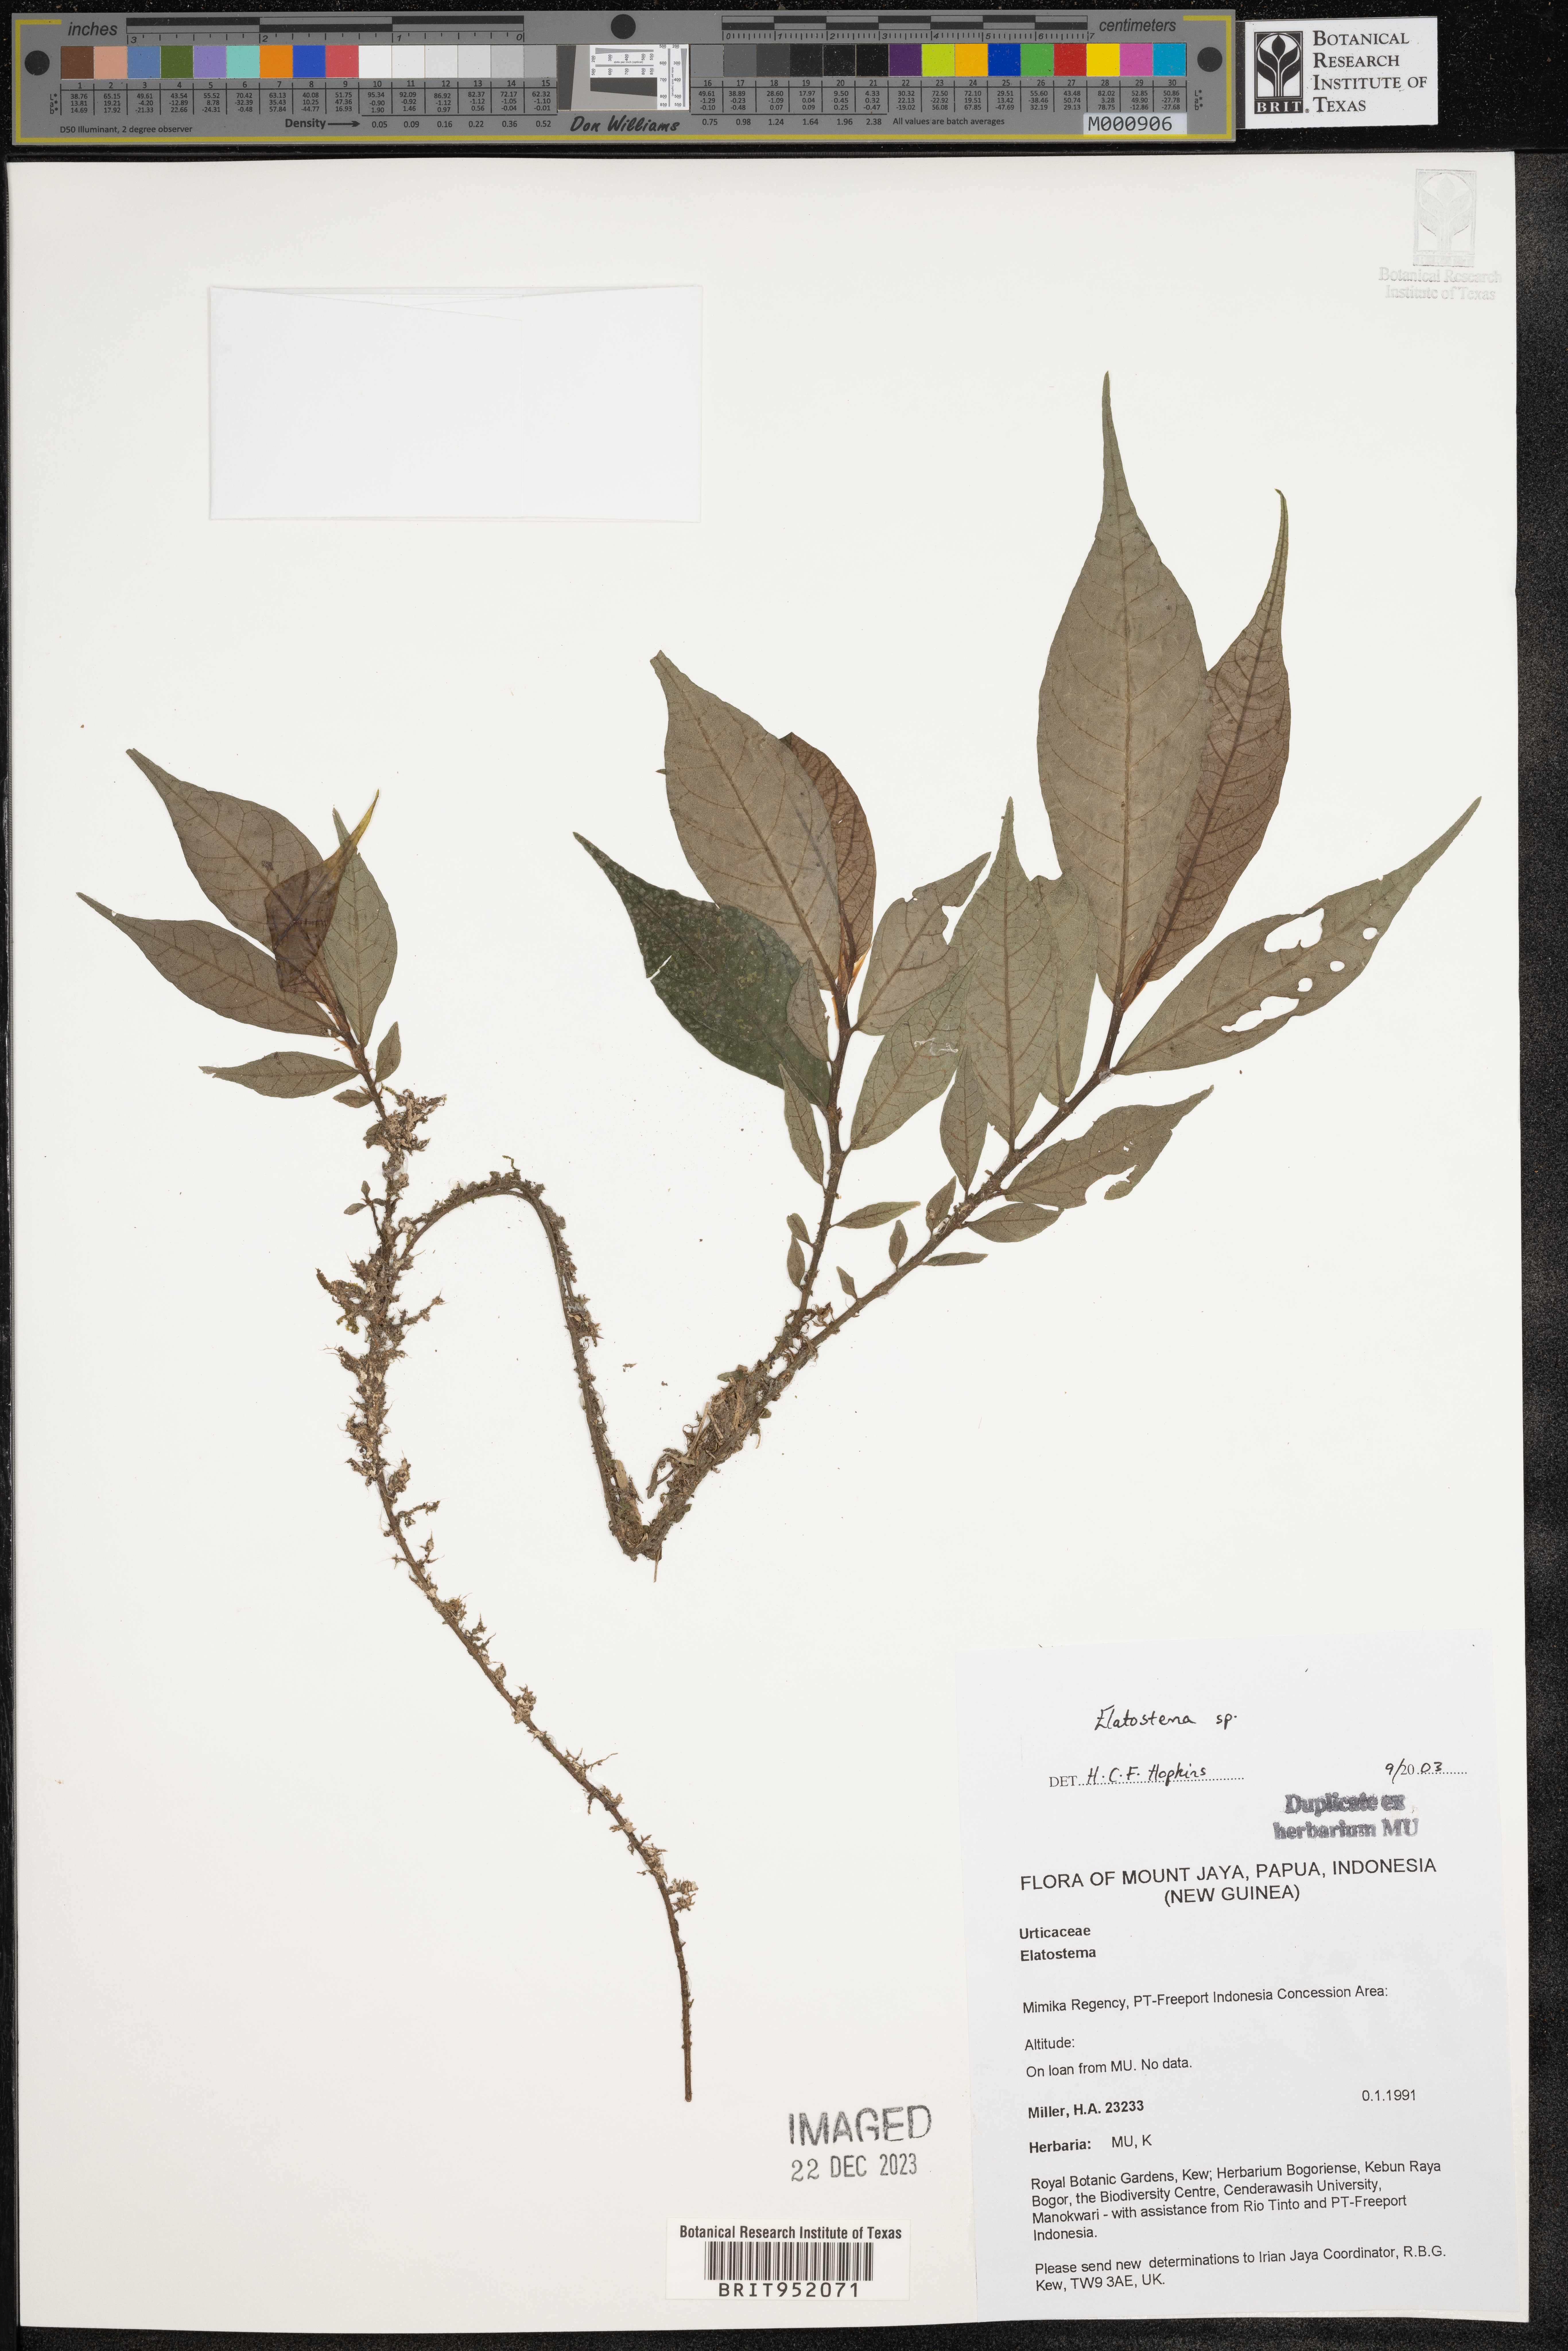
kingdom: Plantae
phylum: Tracheophyta
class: Magnoliopsida
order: Rosales
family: Urticaceae
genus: Elatostema
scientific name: Elatostema
